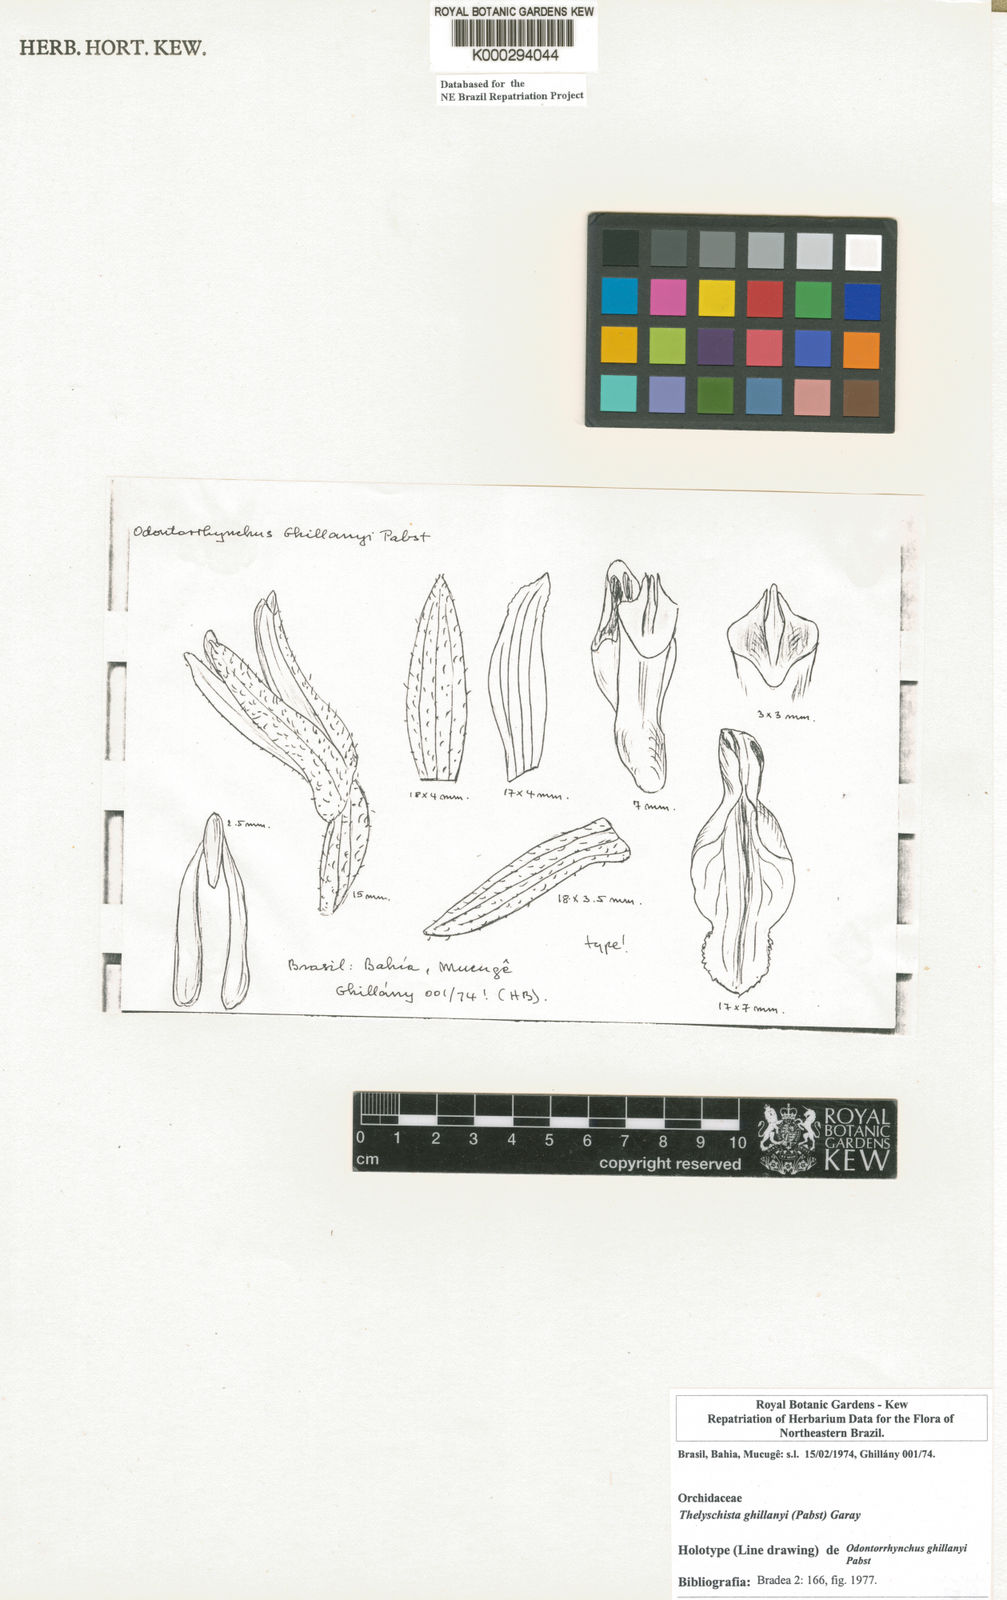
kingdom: Plantae
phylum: Tracheophyta
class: Liliopsida
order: Asparagales
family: Orchidaceae
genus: Thelyschista
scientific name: Thelyschista ghillanyi
